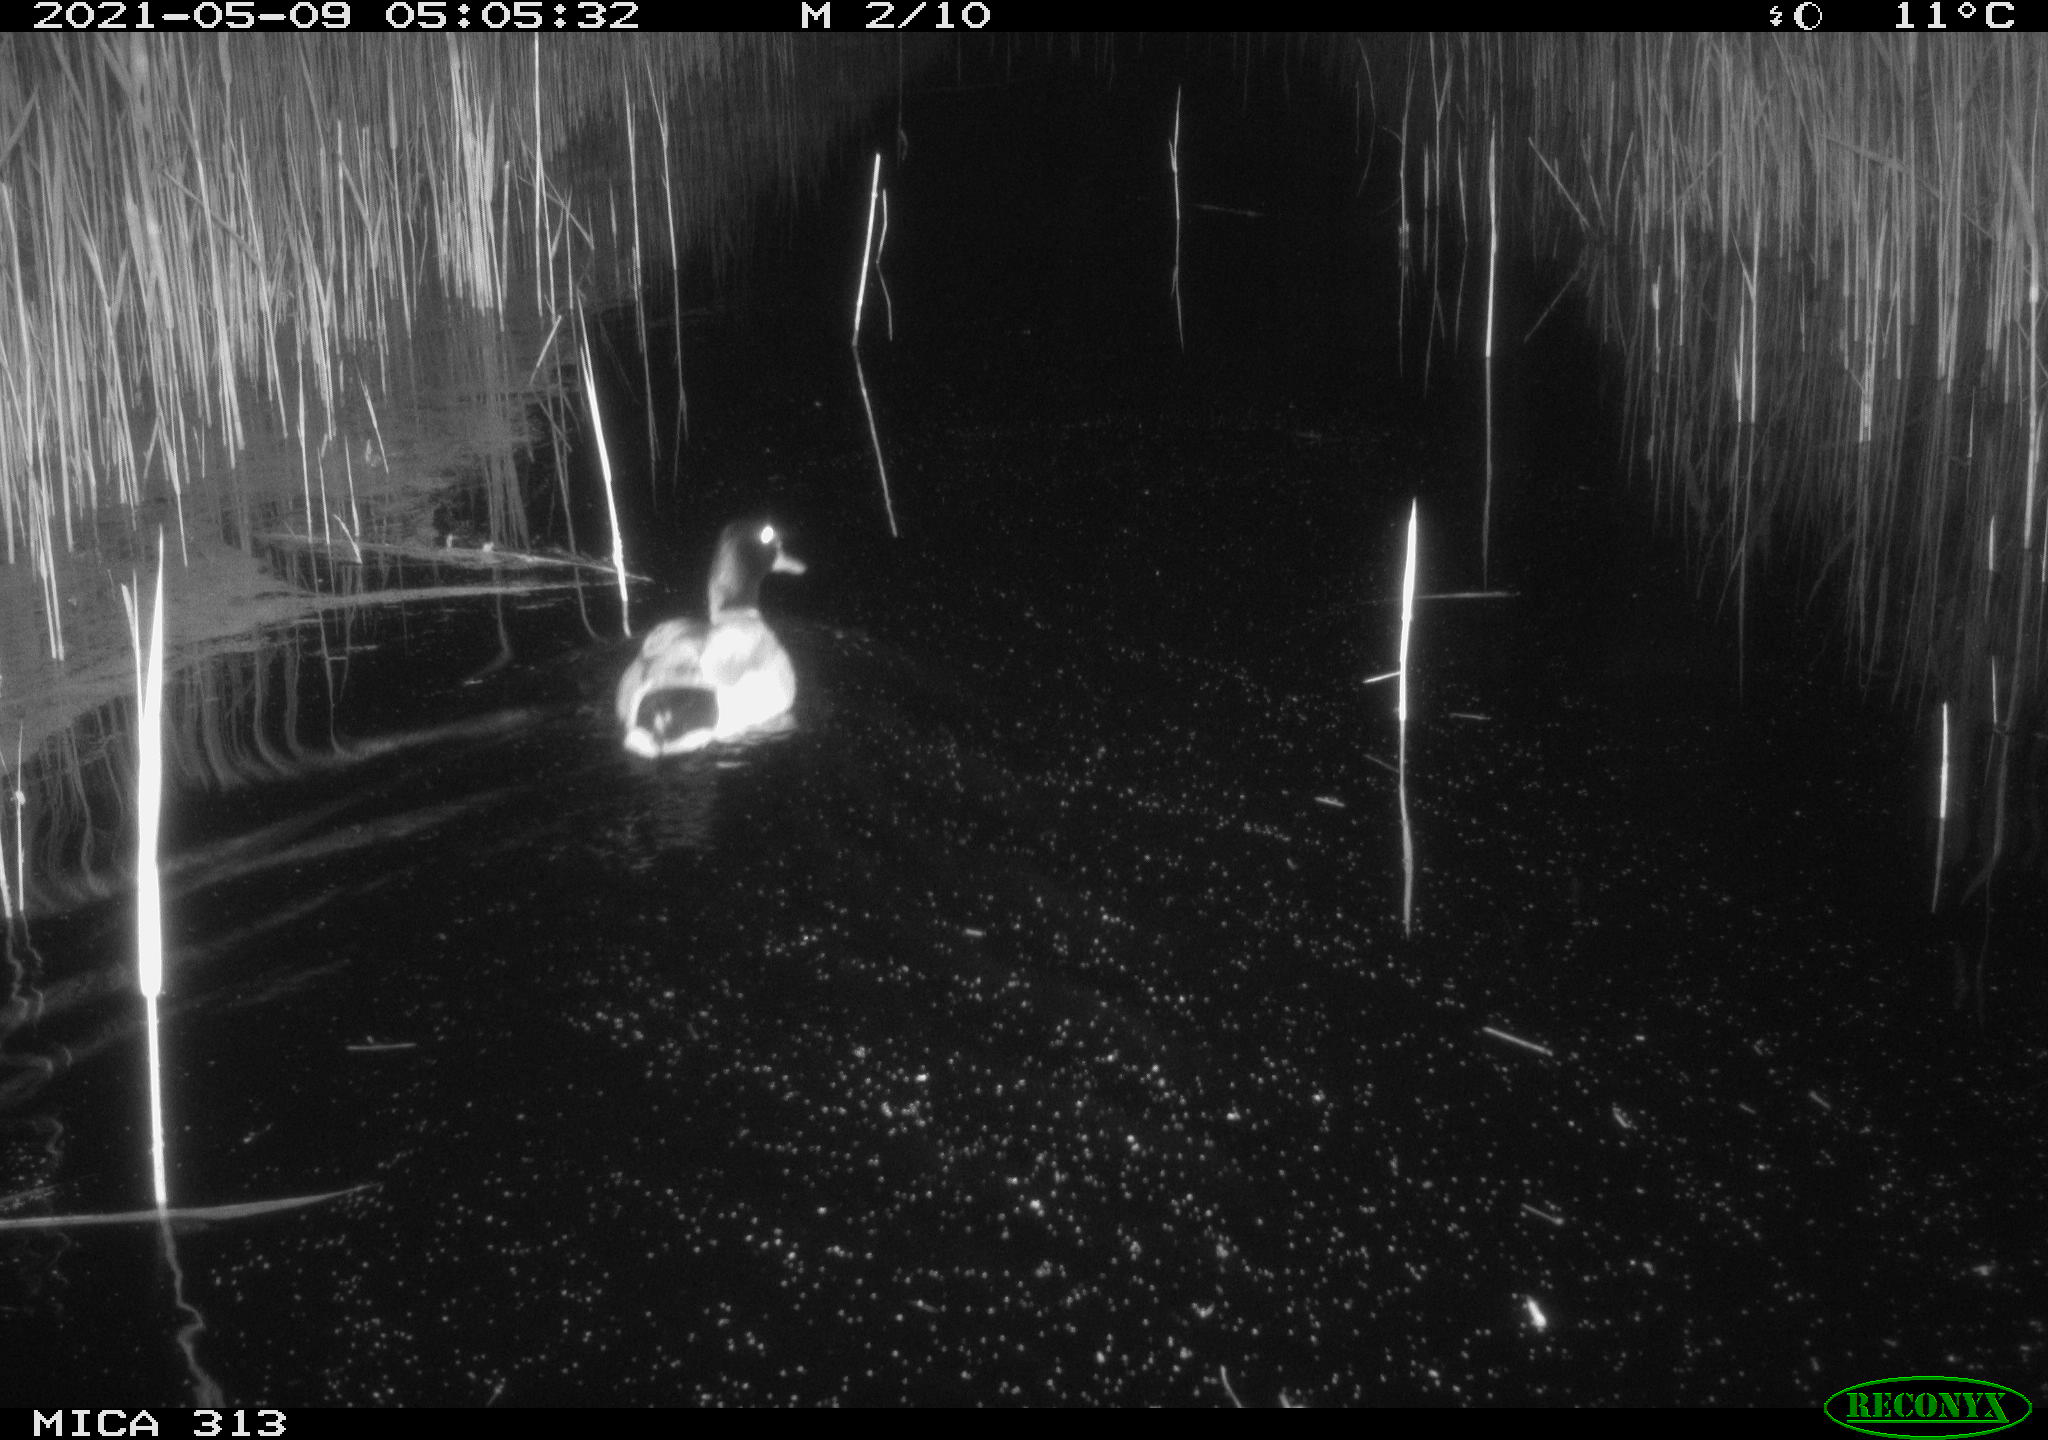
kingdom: Animalia
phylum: Chordata
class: Aves
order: Anseriformes
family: Anatidae
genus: Anas
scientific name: Anas platyrhynchos
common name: Mallard
